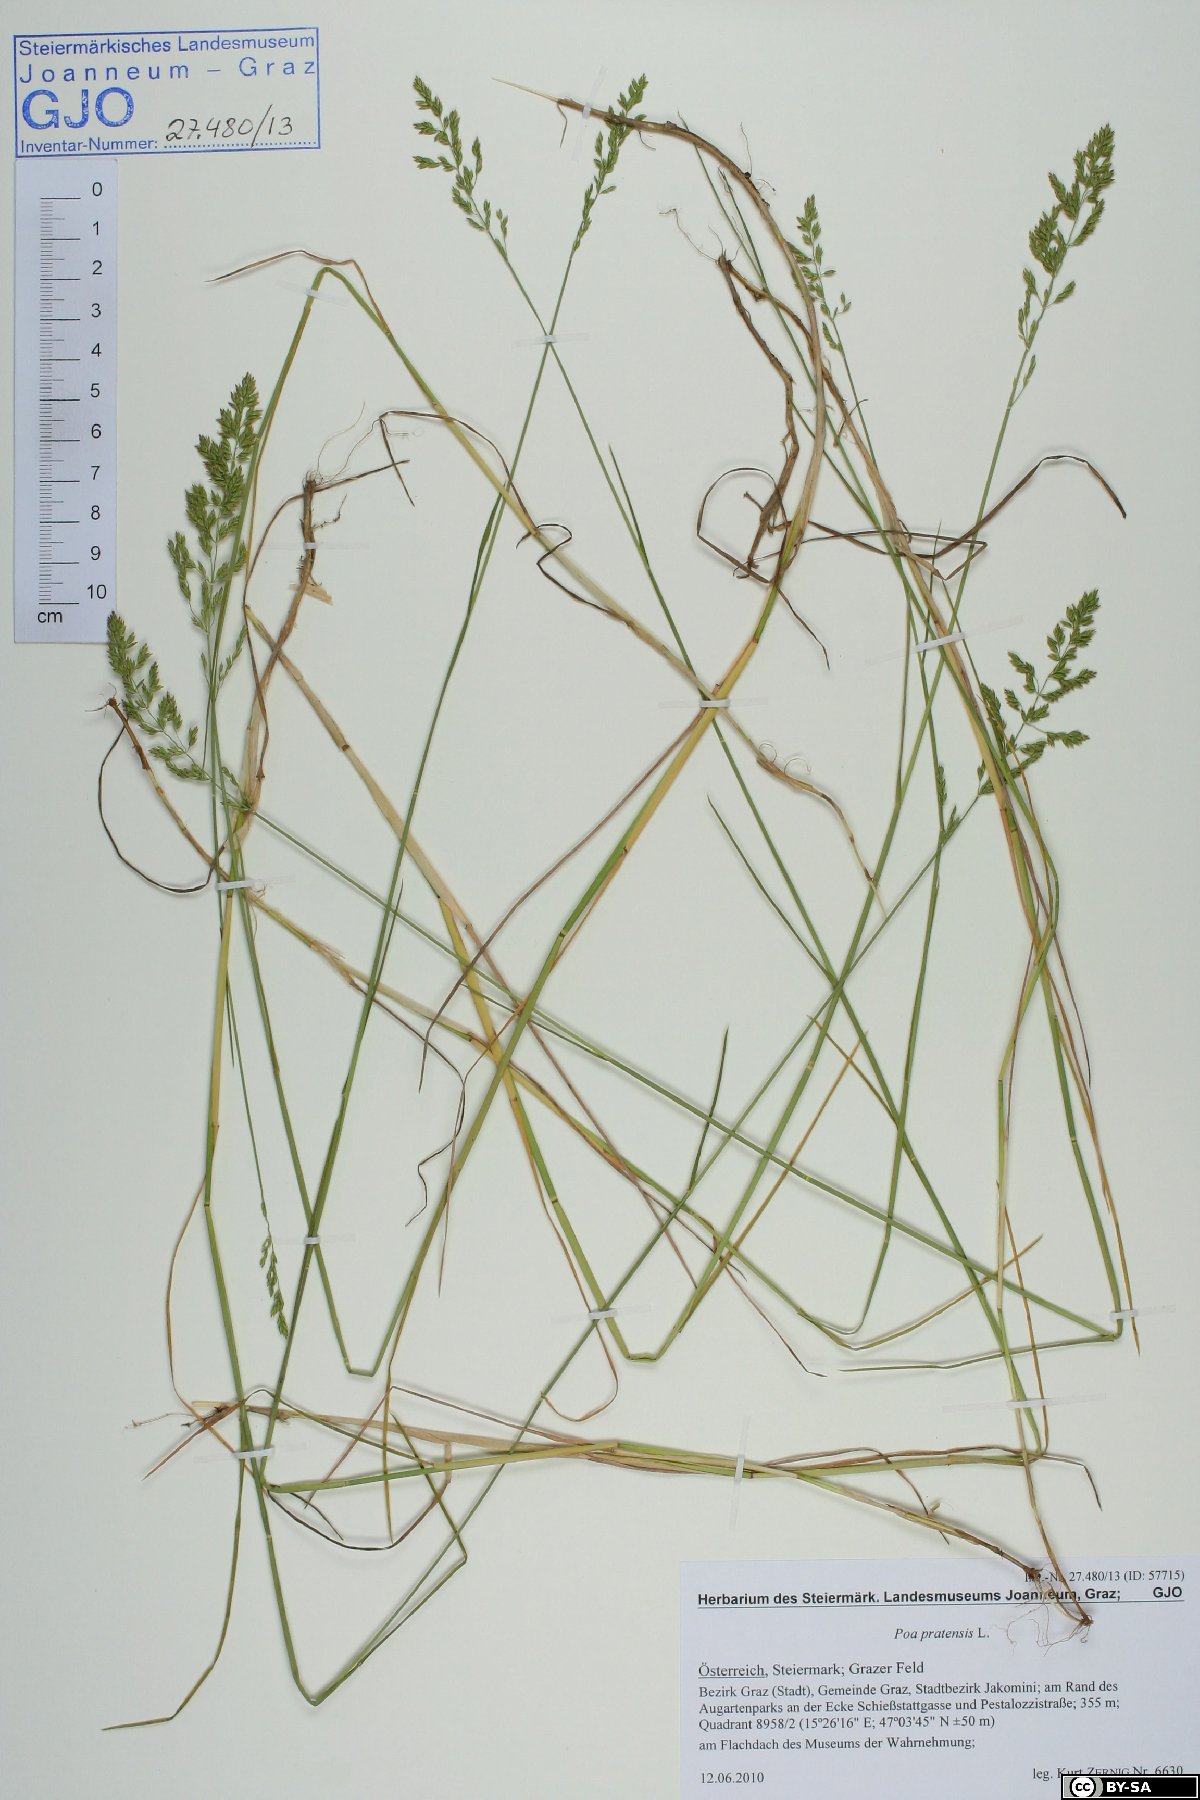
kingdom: Plantae
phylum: Tracheophyta
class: Liliopsida
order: Poales
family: Poaceae
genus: Poa
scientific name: Poa pratensis
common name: Kentucky bluegrass
